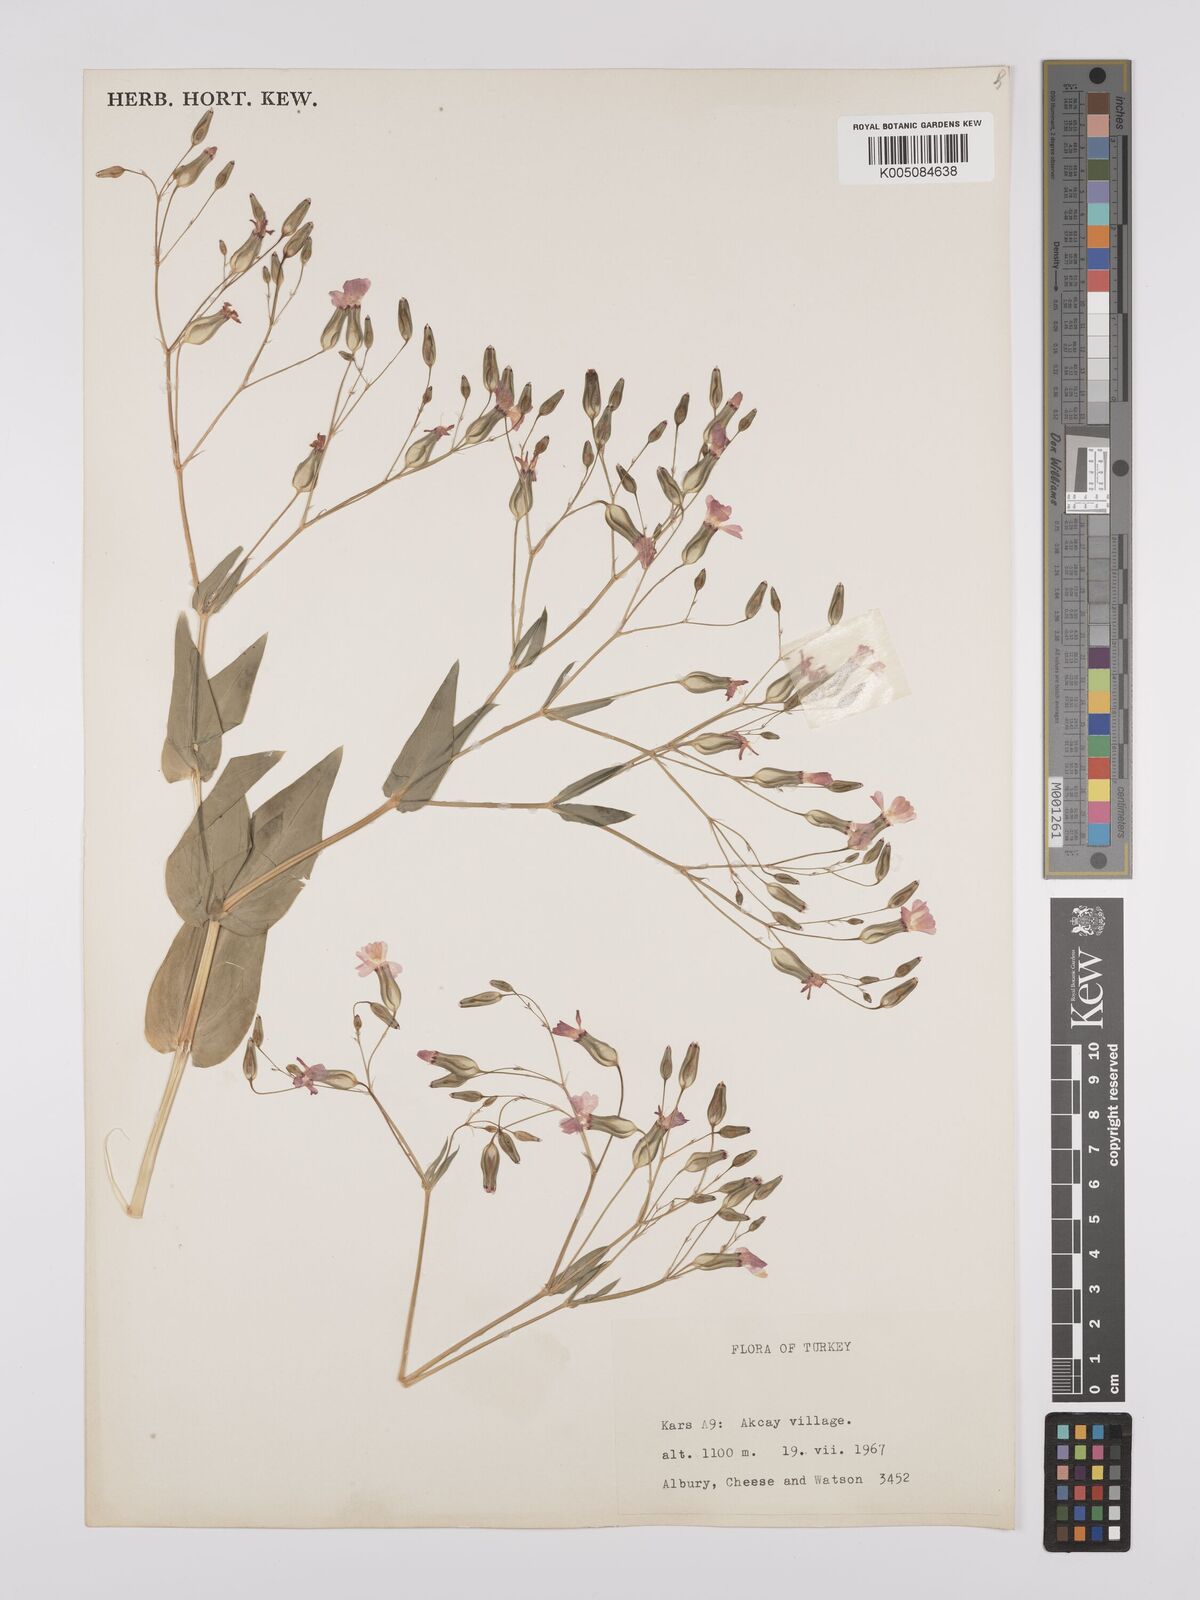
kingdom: Plantae
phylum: Tracheophyta
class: Magnoliopsida
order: Caryophyllales
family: Caryophyllaceae
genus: Gypsophila
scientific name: Gypsophila vaccaria
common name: Cow soapwort
